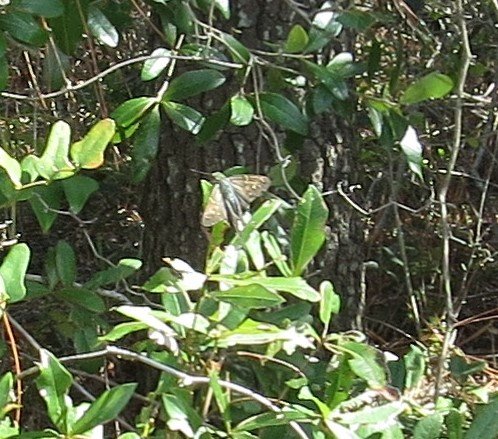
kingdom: Animalia
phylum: Arthropoda
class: Insecta
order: Lepidoptera
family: Hesperiidae
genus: Urbanus
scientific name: Urbanus proteus
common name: Long-tailed Skipper
